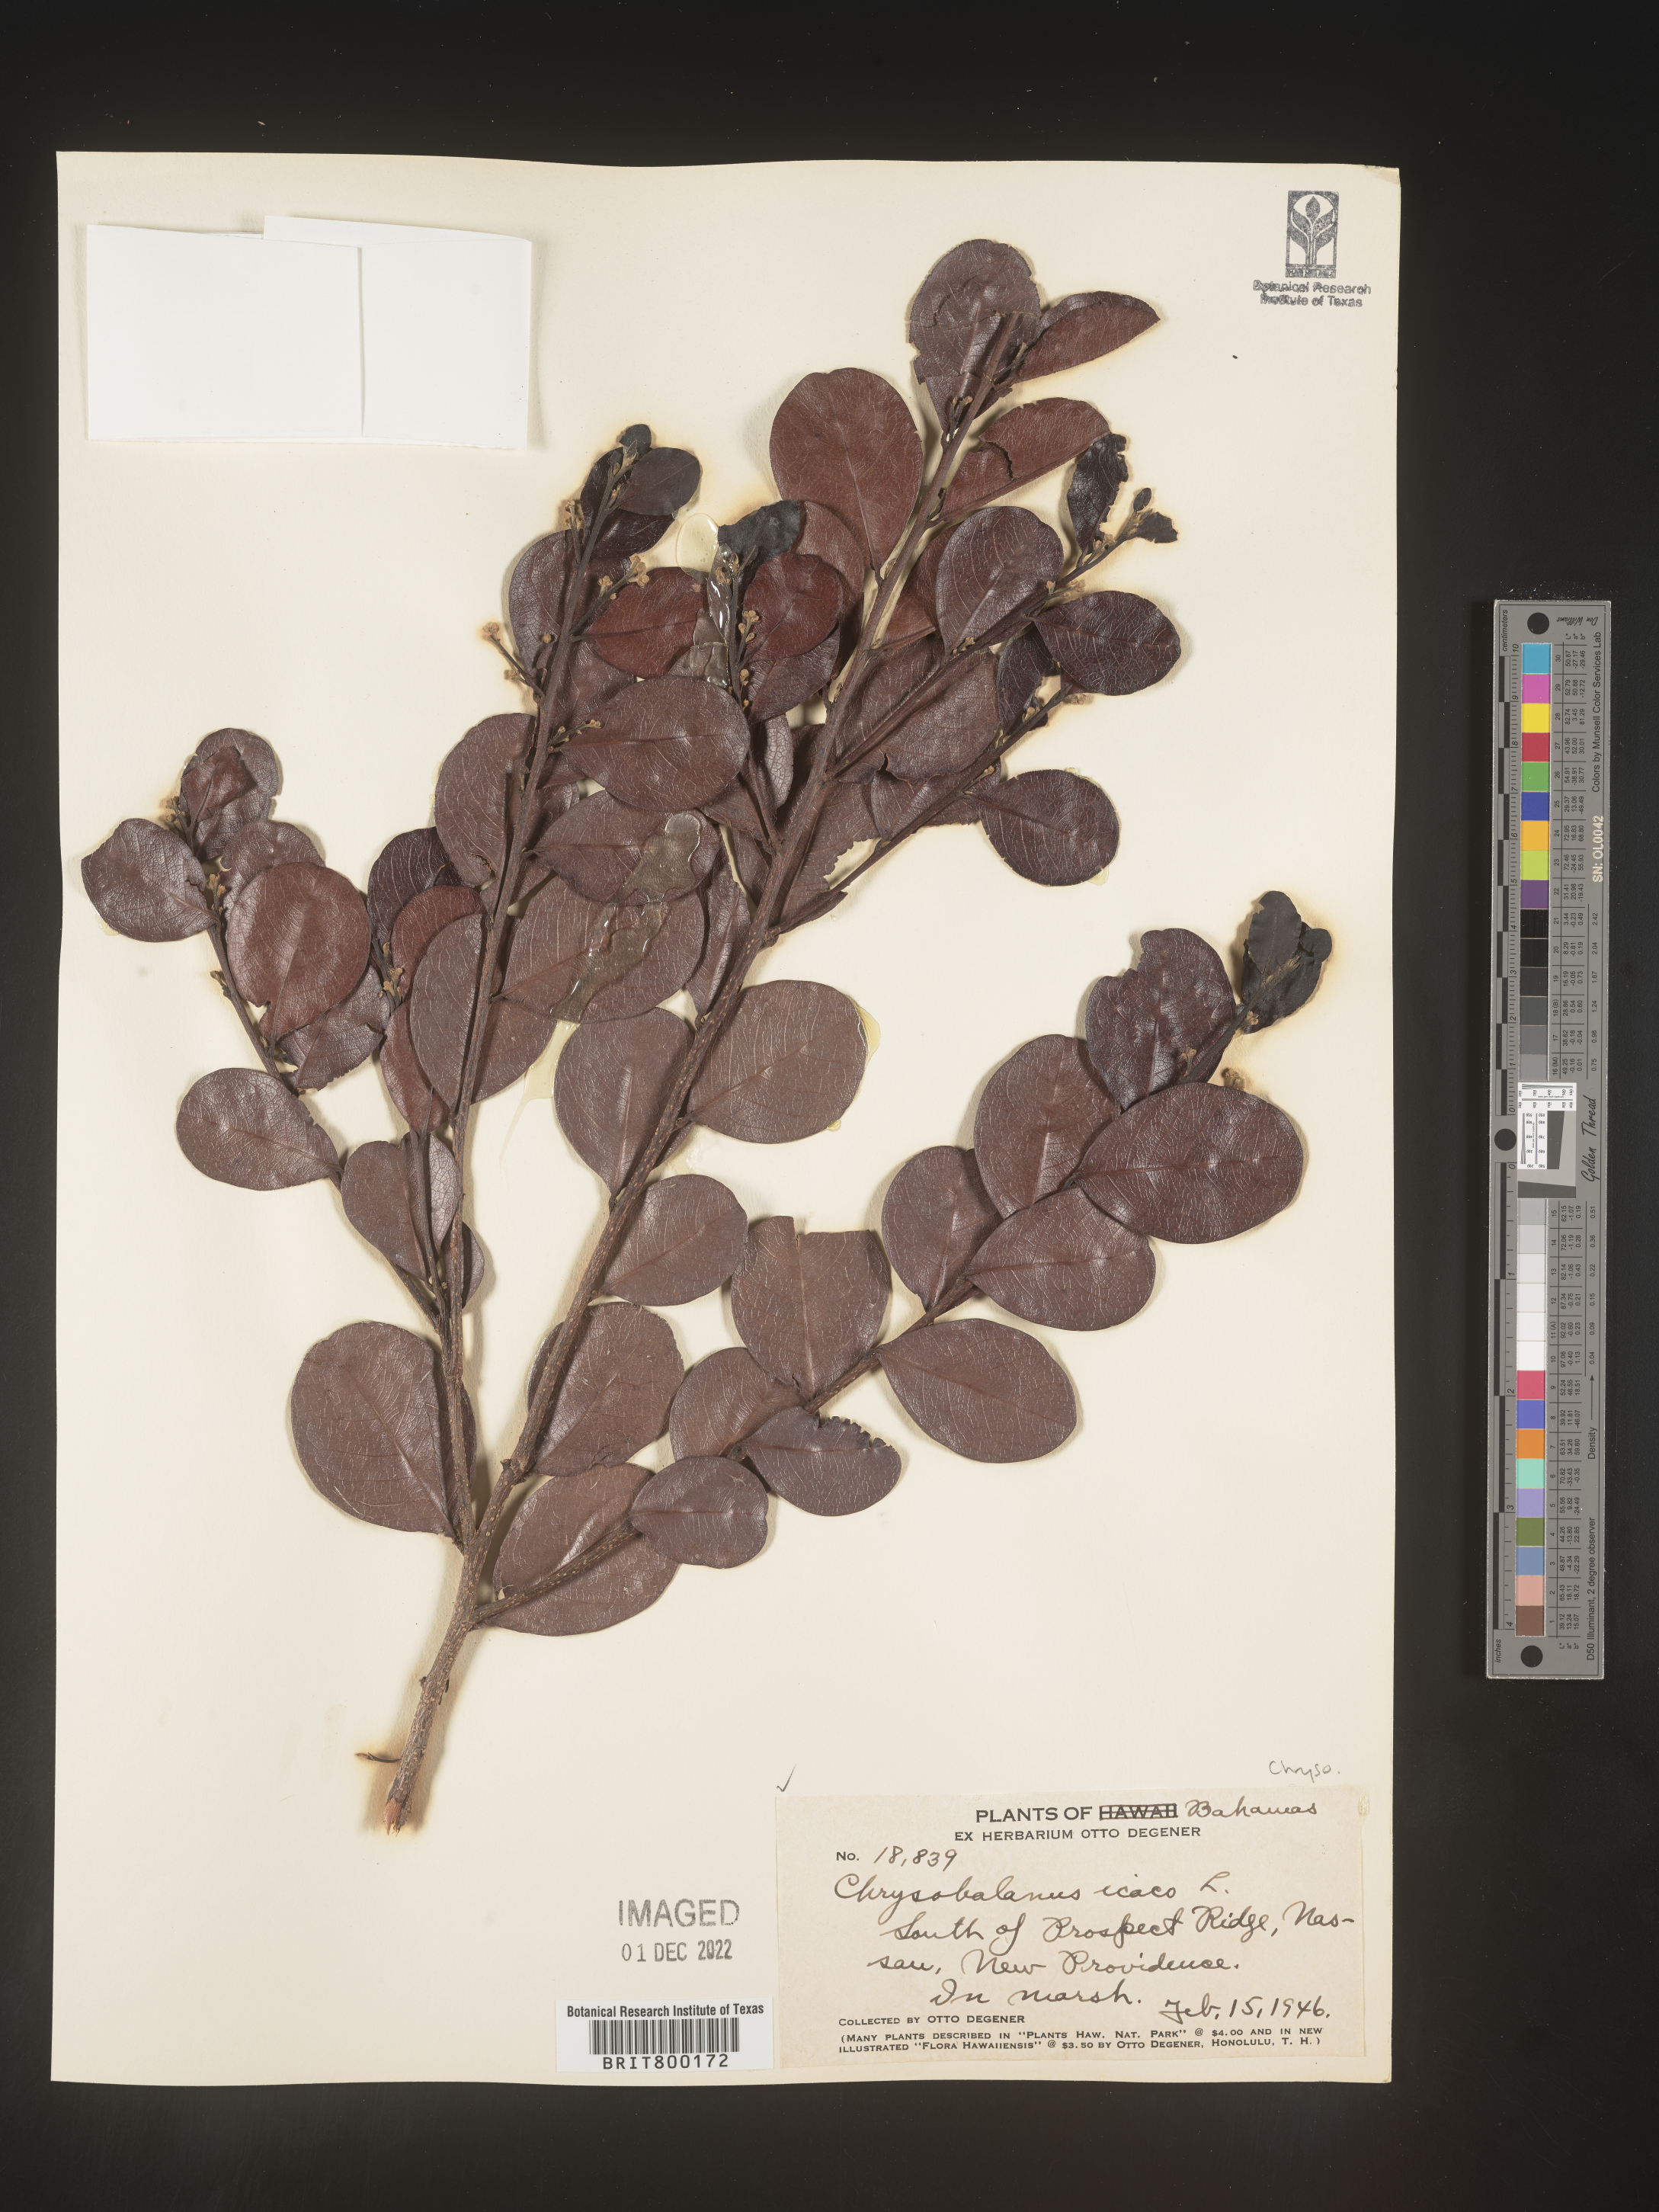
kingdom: Plantae
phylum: Tracheophyta
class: Magnoliopsida
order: Malpighiales
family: Chrysobalanaceae
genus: Chrysobalanus
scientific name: Chrysobalanus
